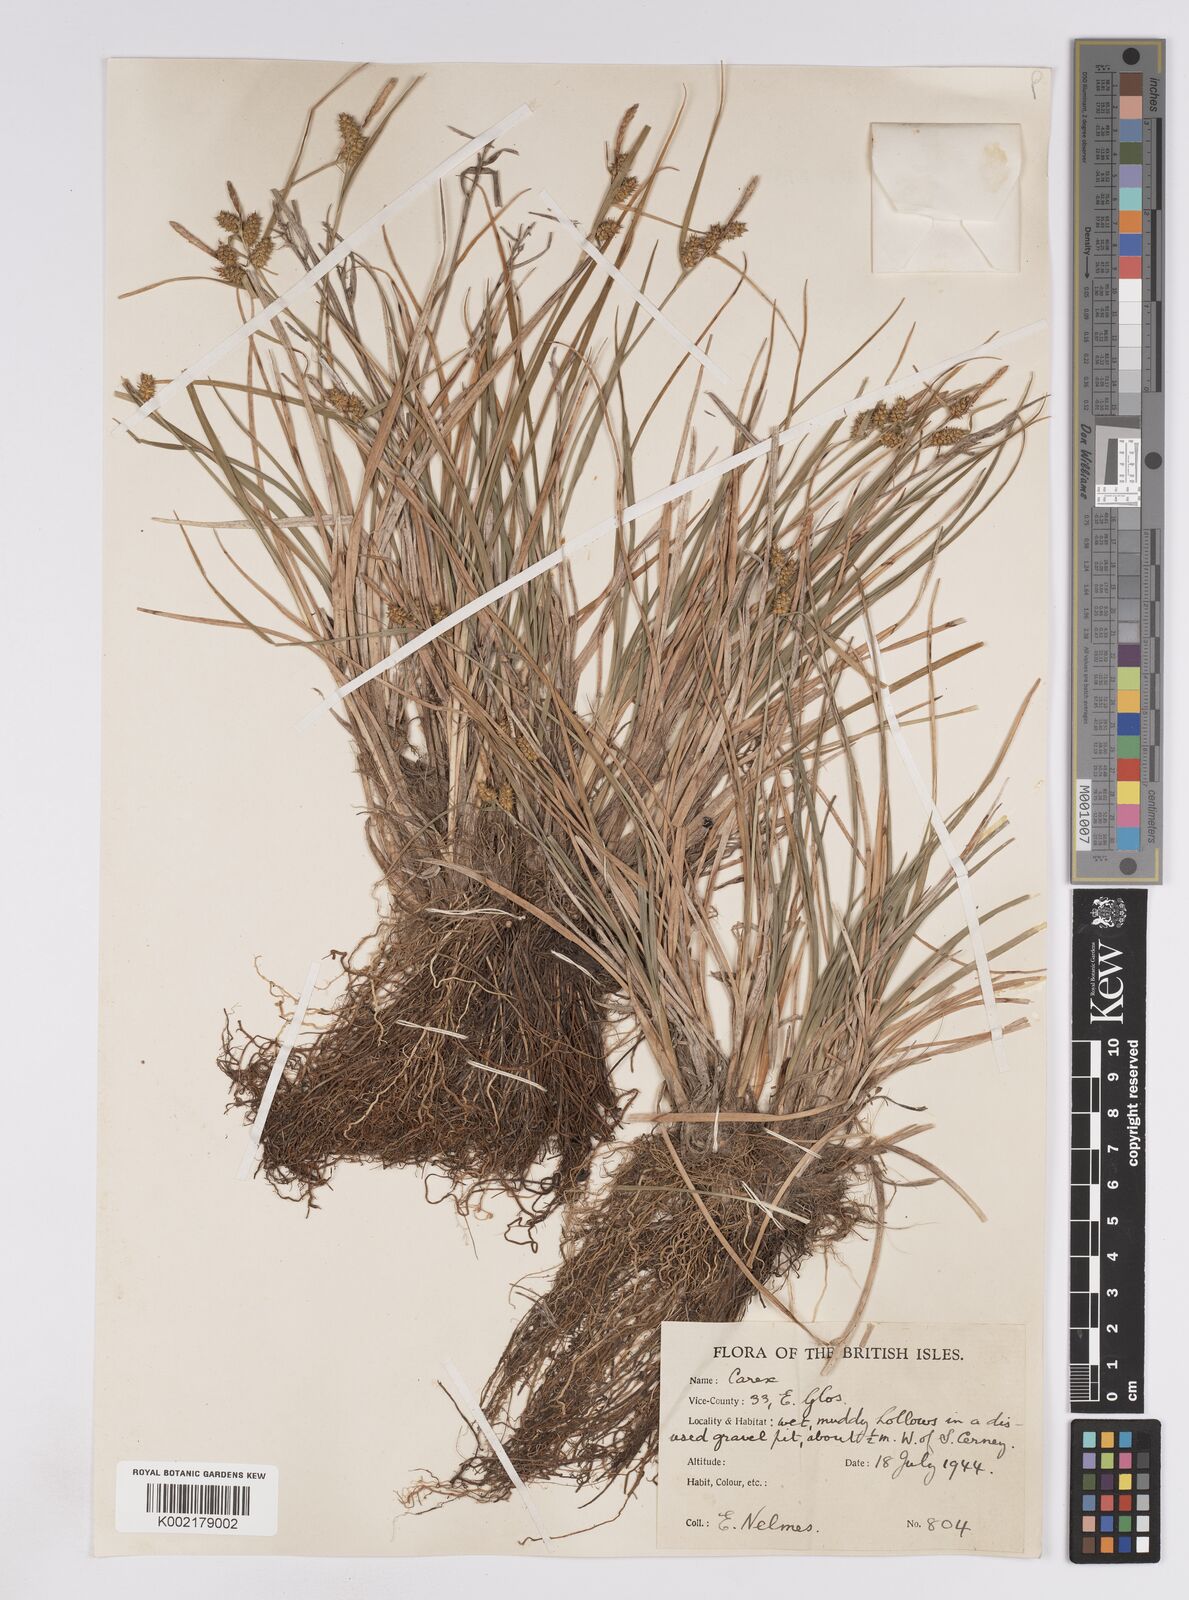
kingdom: Plantae
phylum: Tracheophyta
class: Liliopsida
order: Poales
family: Cyperaceae
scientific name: Cyperaceae
